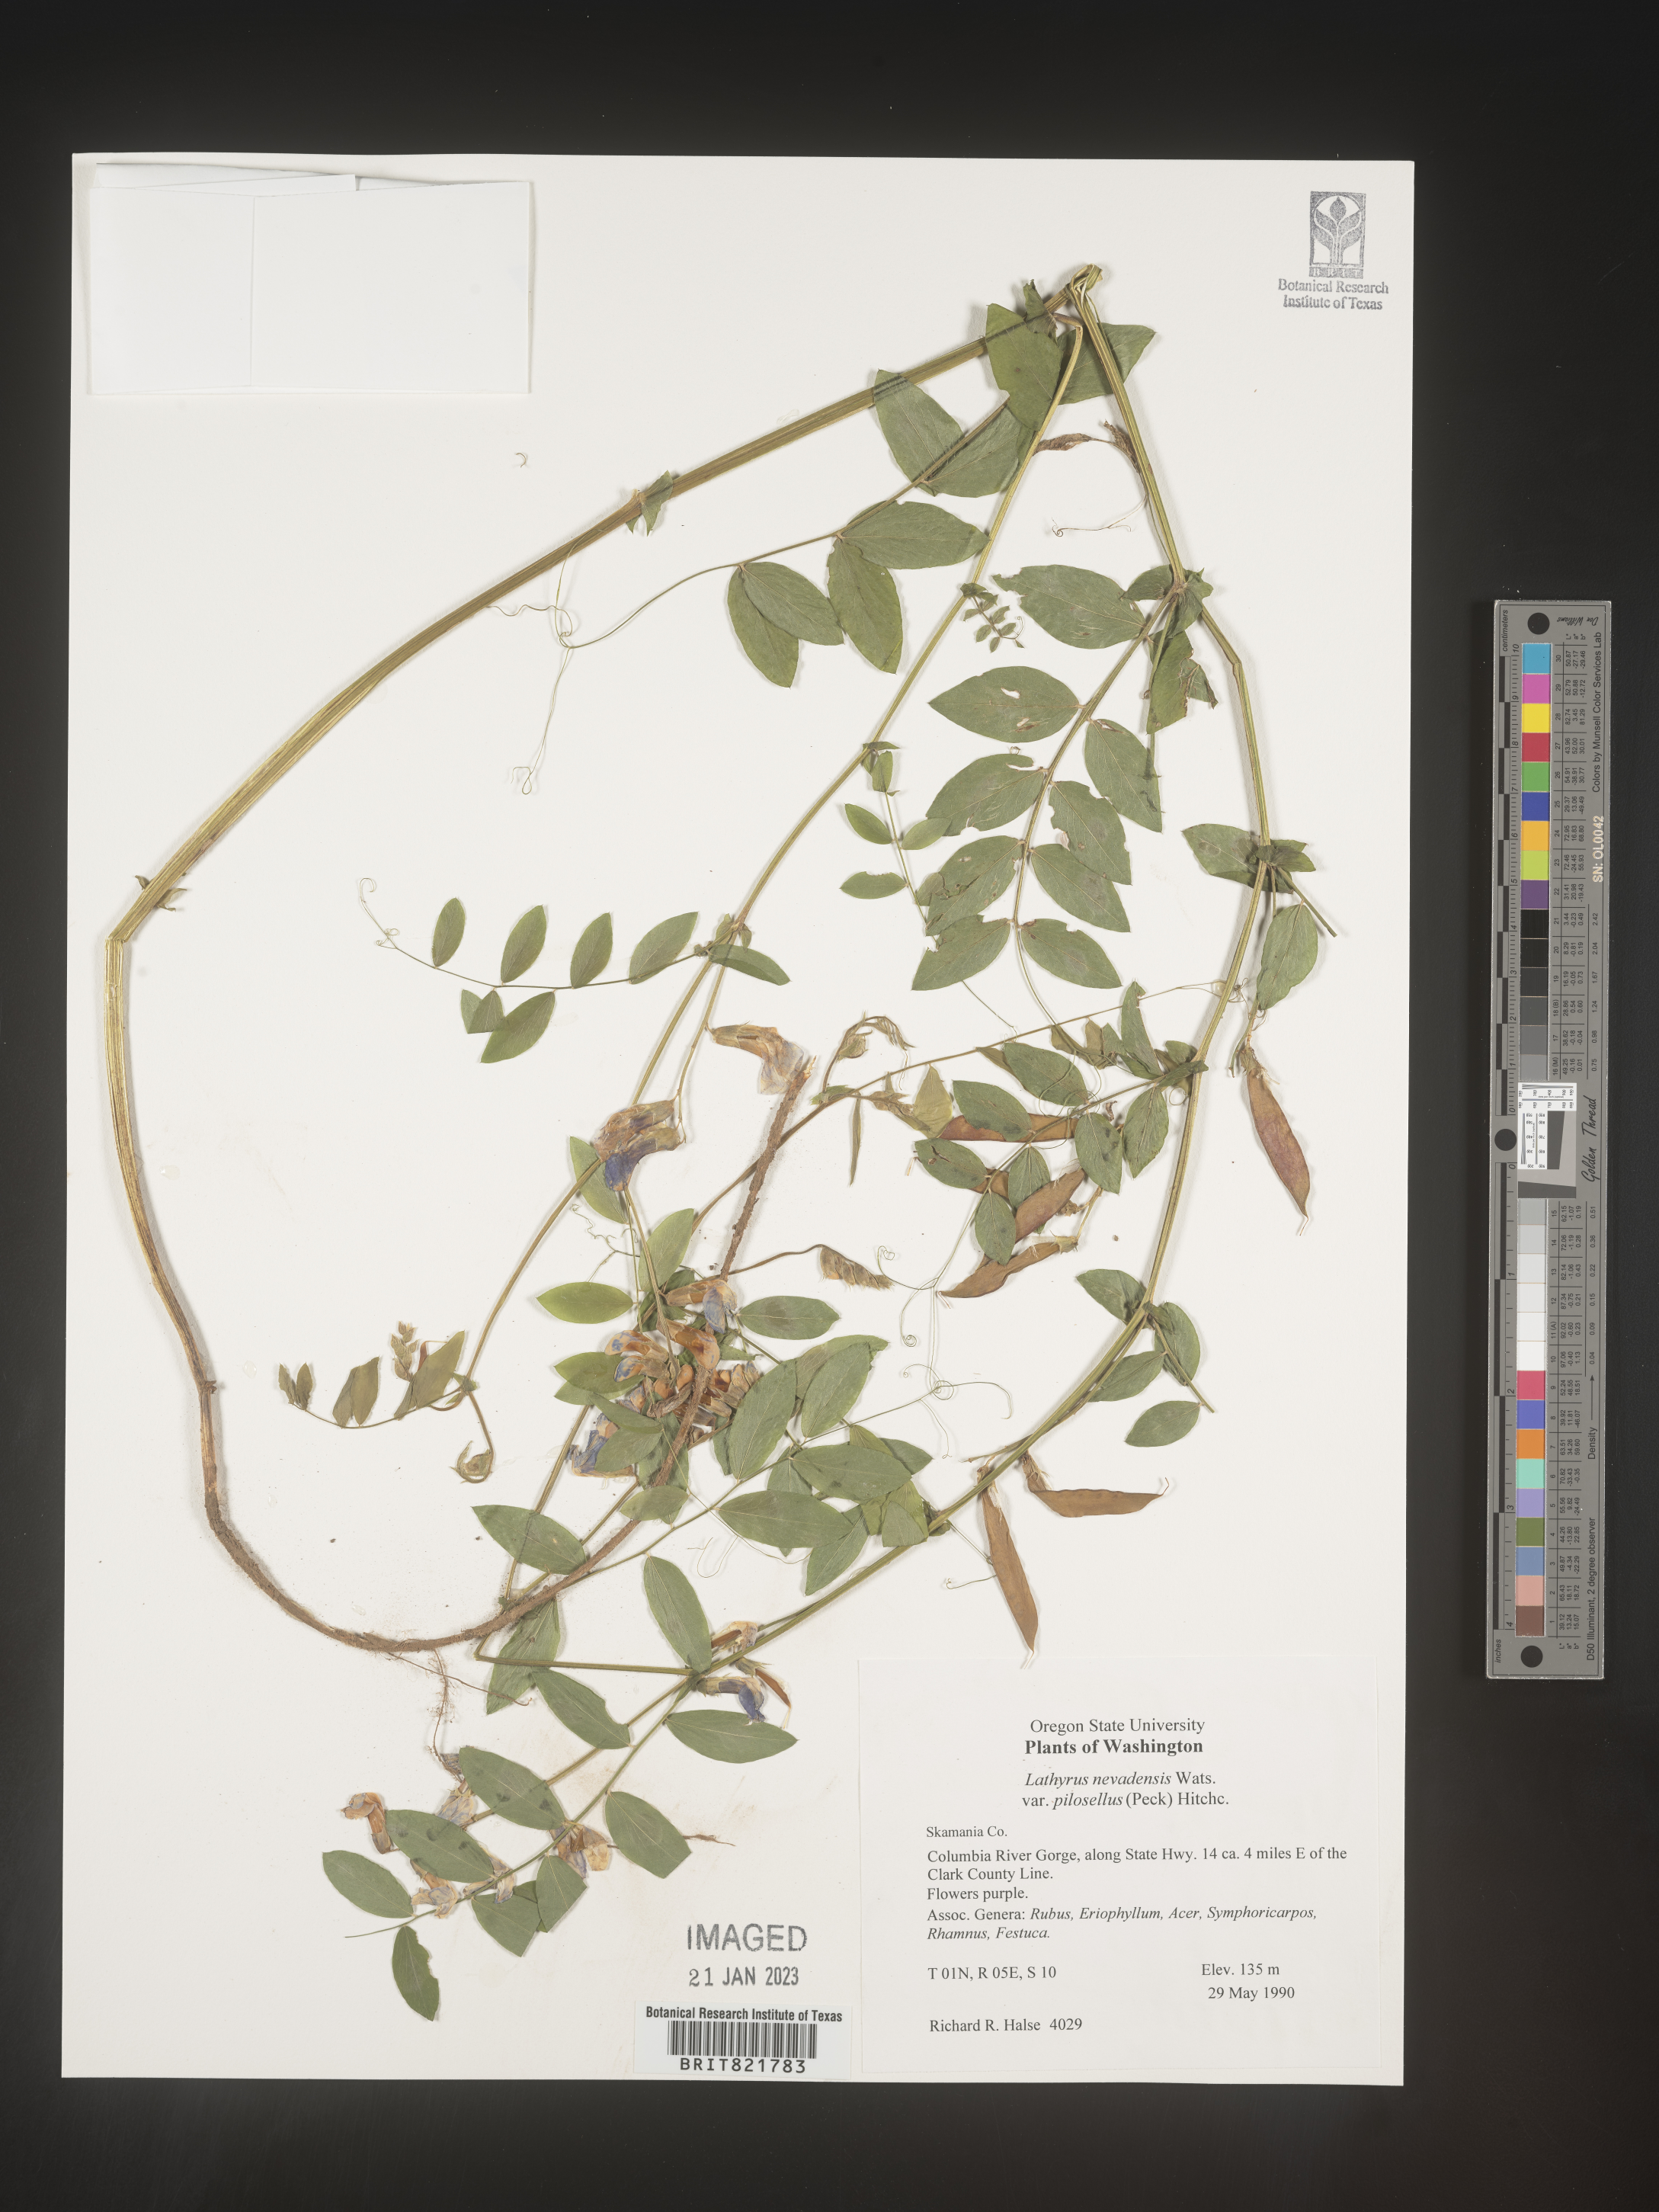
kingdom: Plantae
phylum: Tracheophyta
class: Magnoliopsida
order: Fabales
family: Fabaceae
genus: Lathyrus
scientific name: Lathyrus
